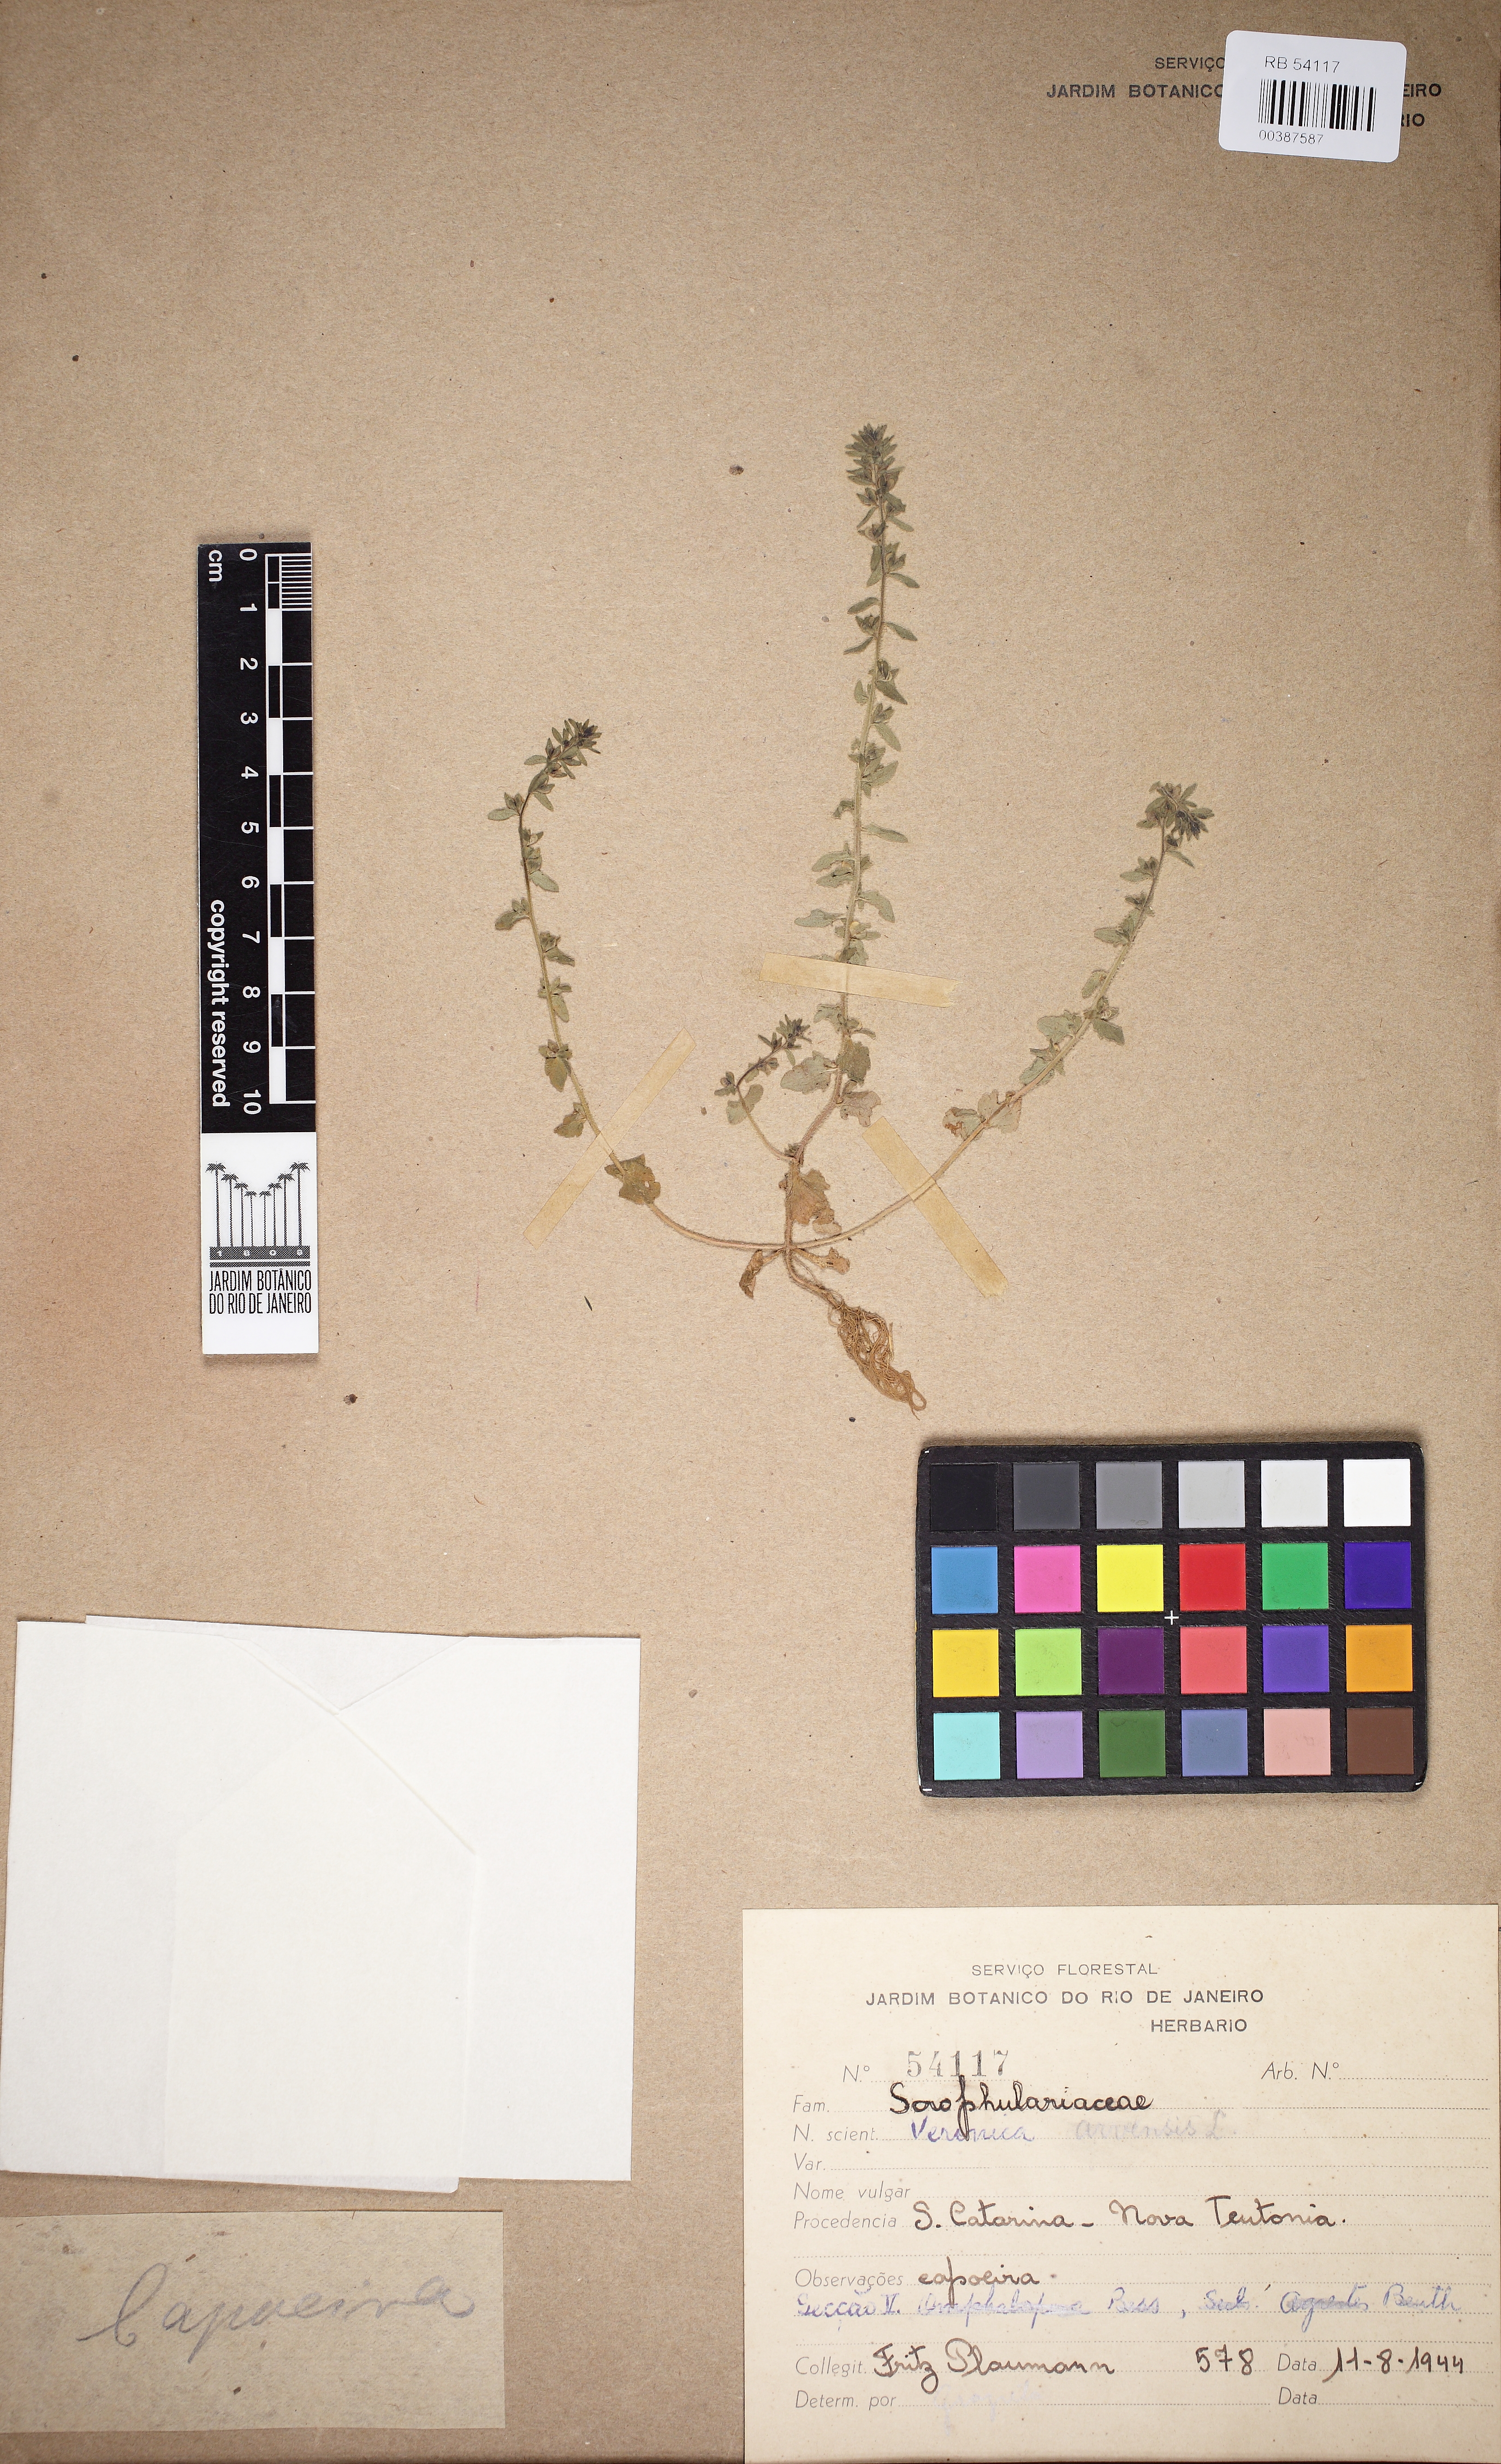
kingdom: Plantae
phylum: Tracheophyta
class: Magnoliopsida
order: Lamiales
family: Plantaginaceae
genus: Veronica
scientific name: Veronica arvensis
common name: Corn speedwell
